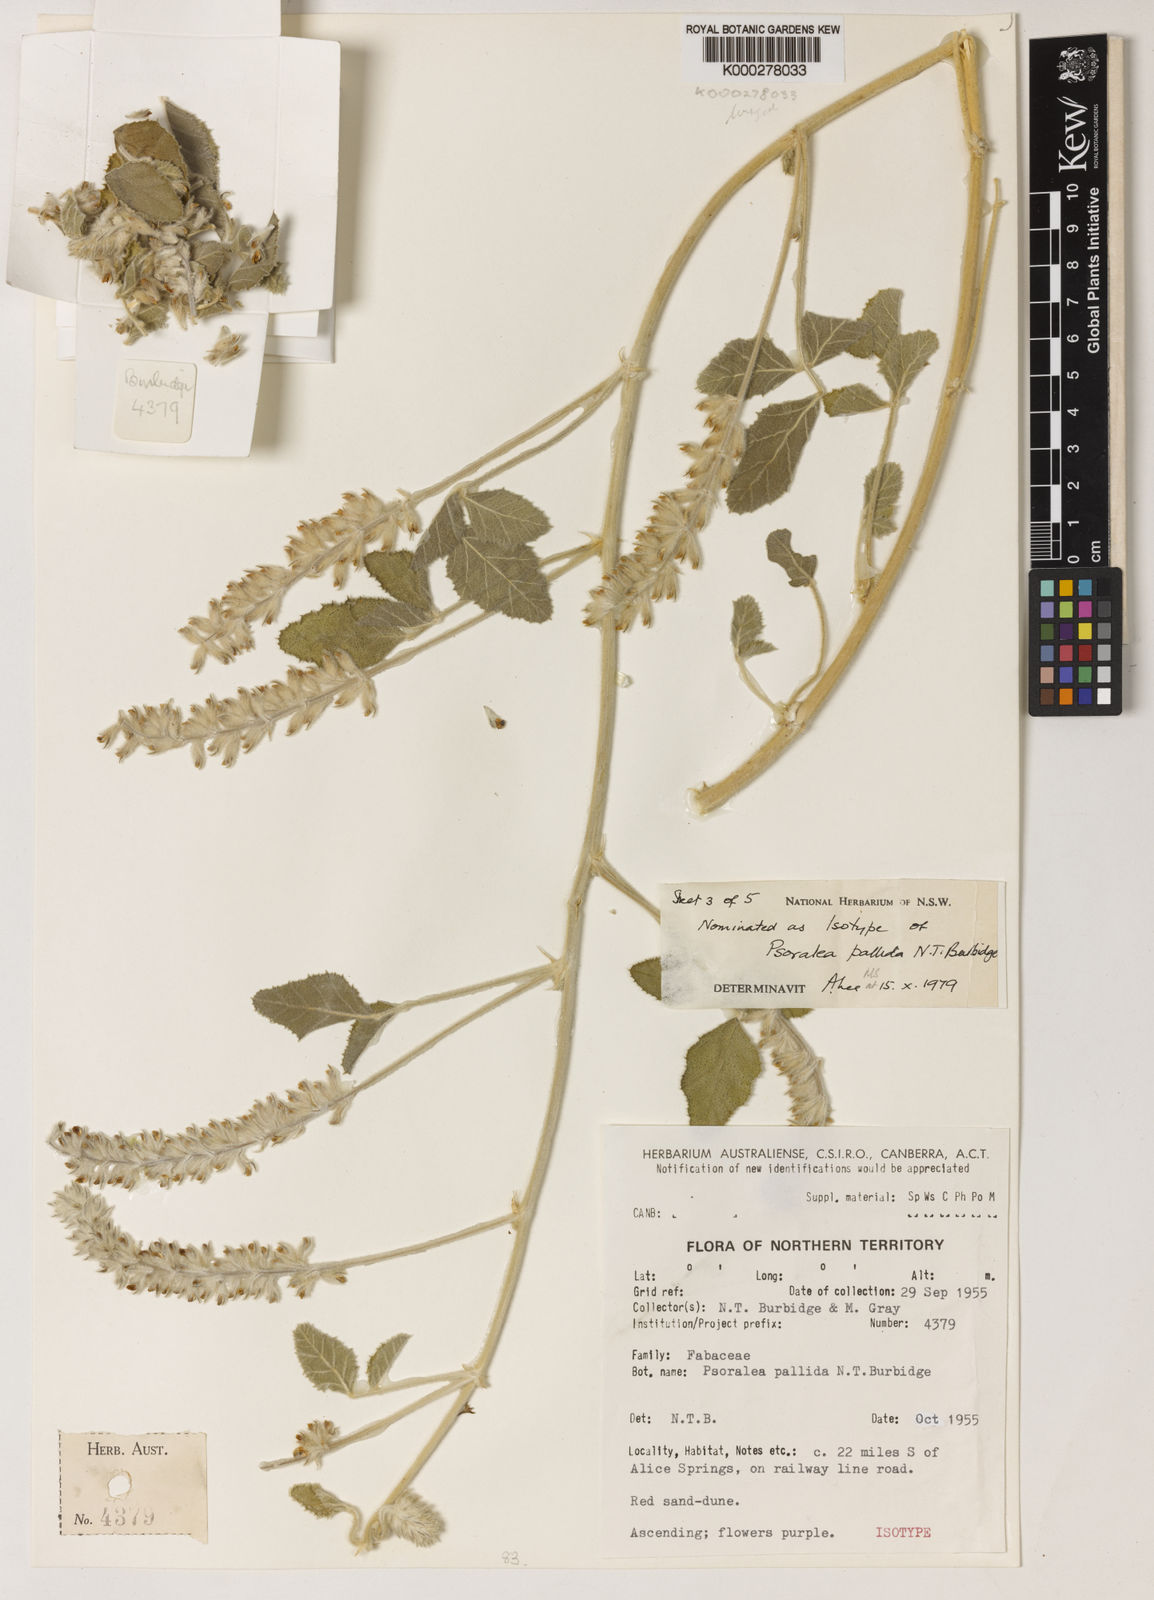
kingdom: Plantae
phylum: Tracheophyta
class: Magnoliopsida
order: Fabales
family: Fabaceae
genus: Cullen
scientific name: Cullen pallidum
